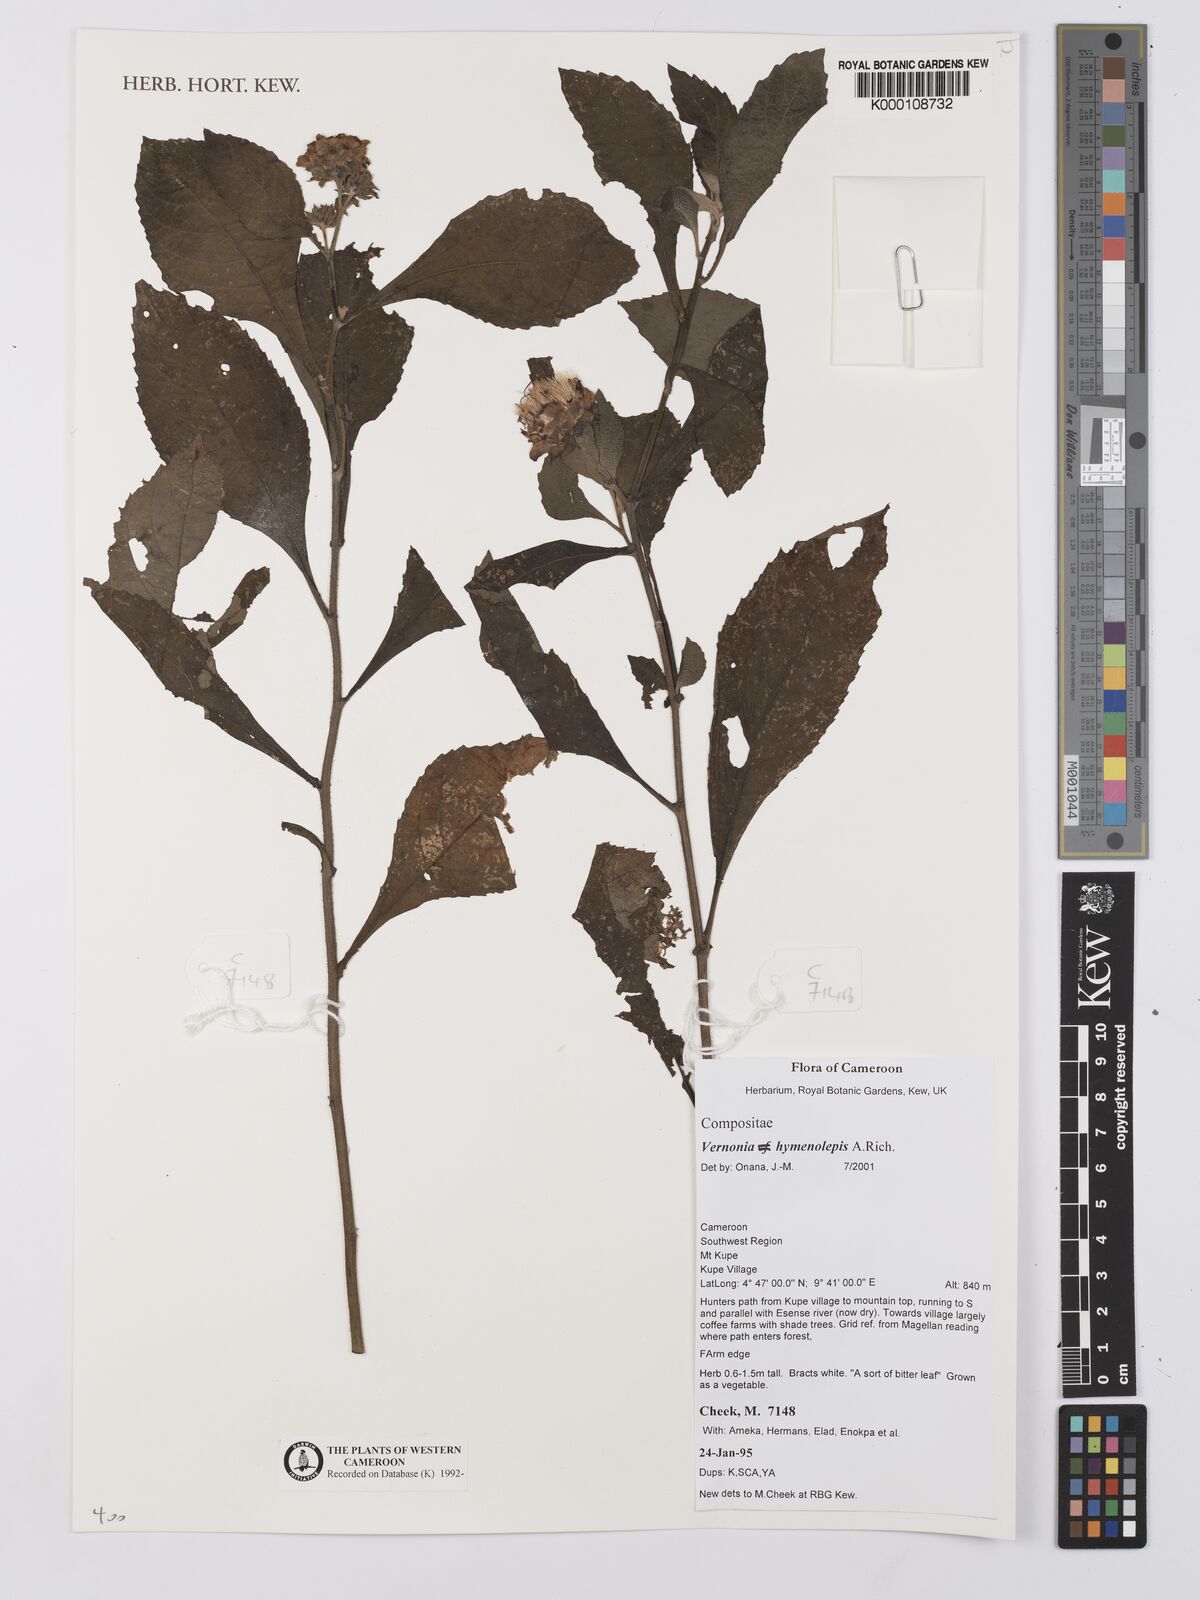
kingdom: Plantae
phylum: Tracheophyta
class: Magnoliopsida
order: Asterales
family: Asteraceae
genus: Baccharoides
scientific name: Baccharoides hymenolepis
